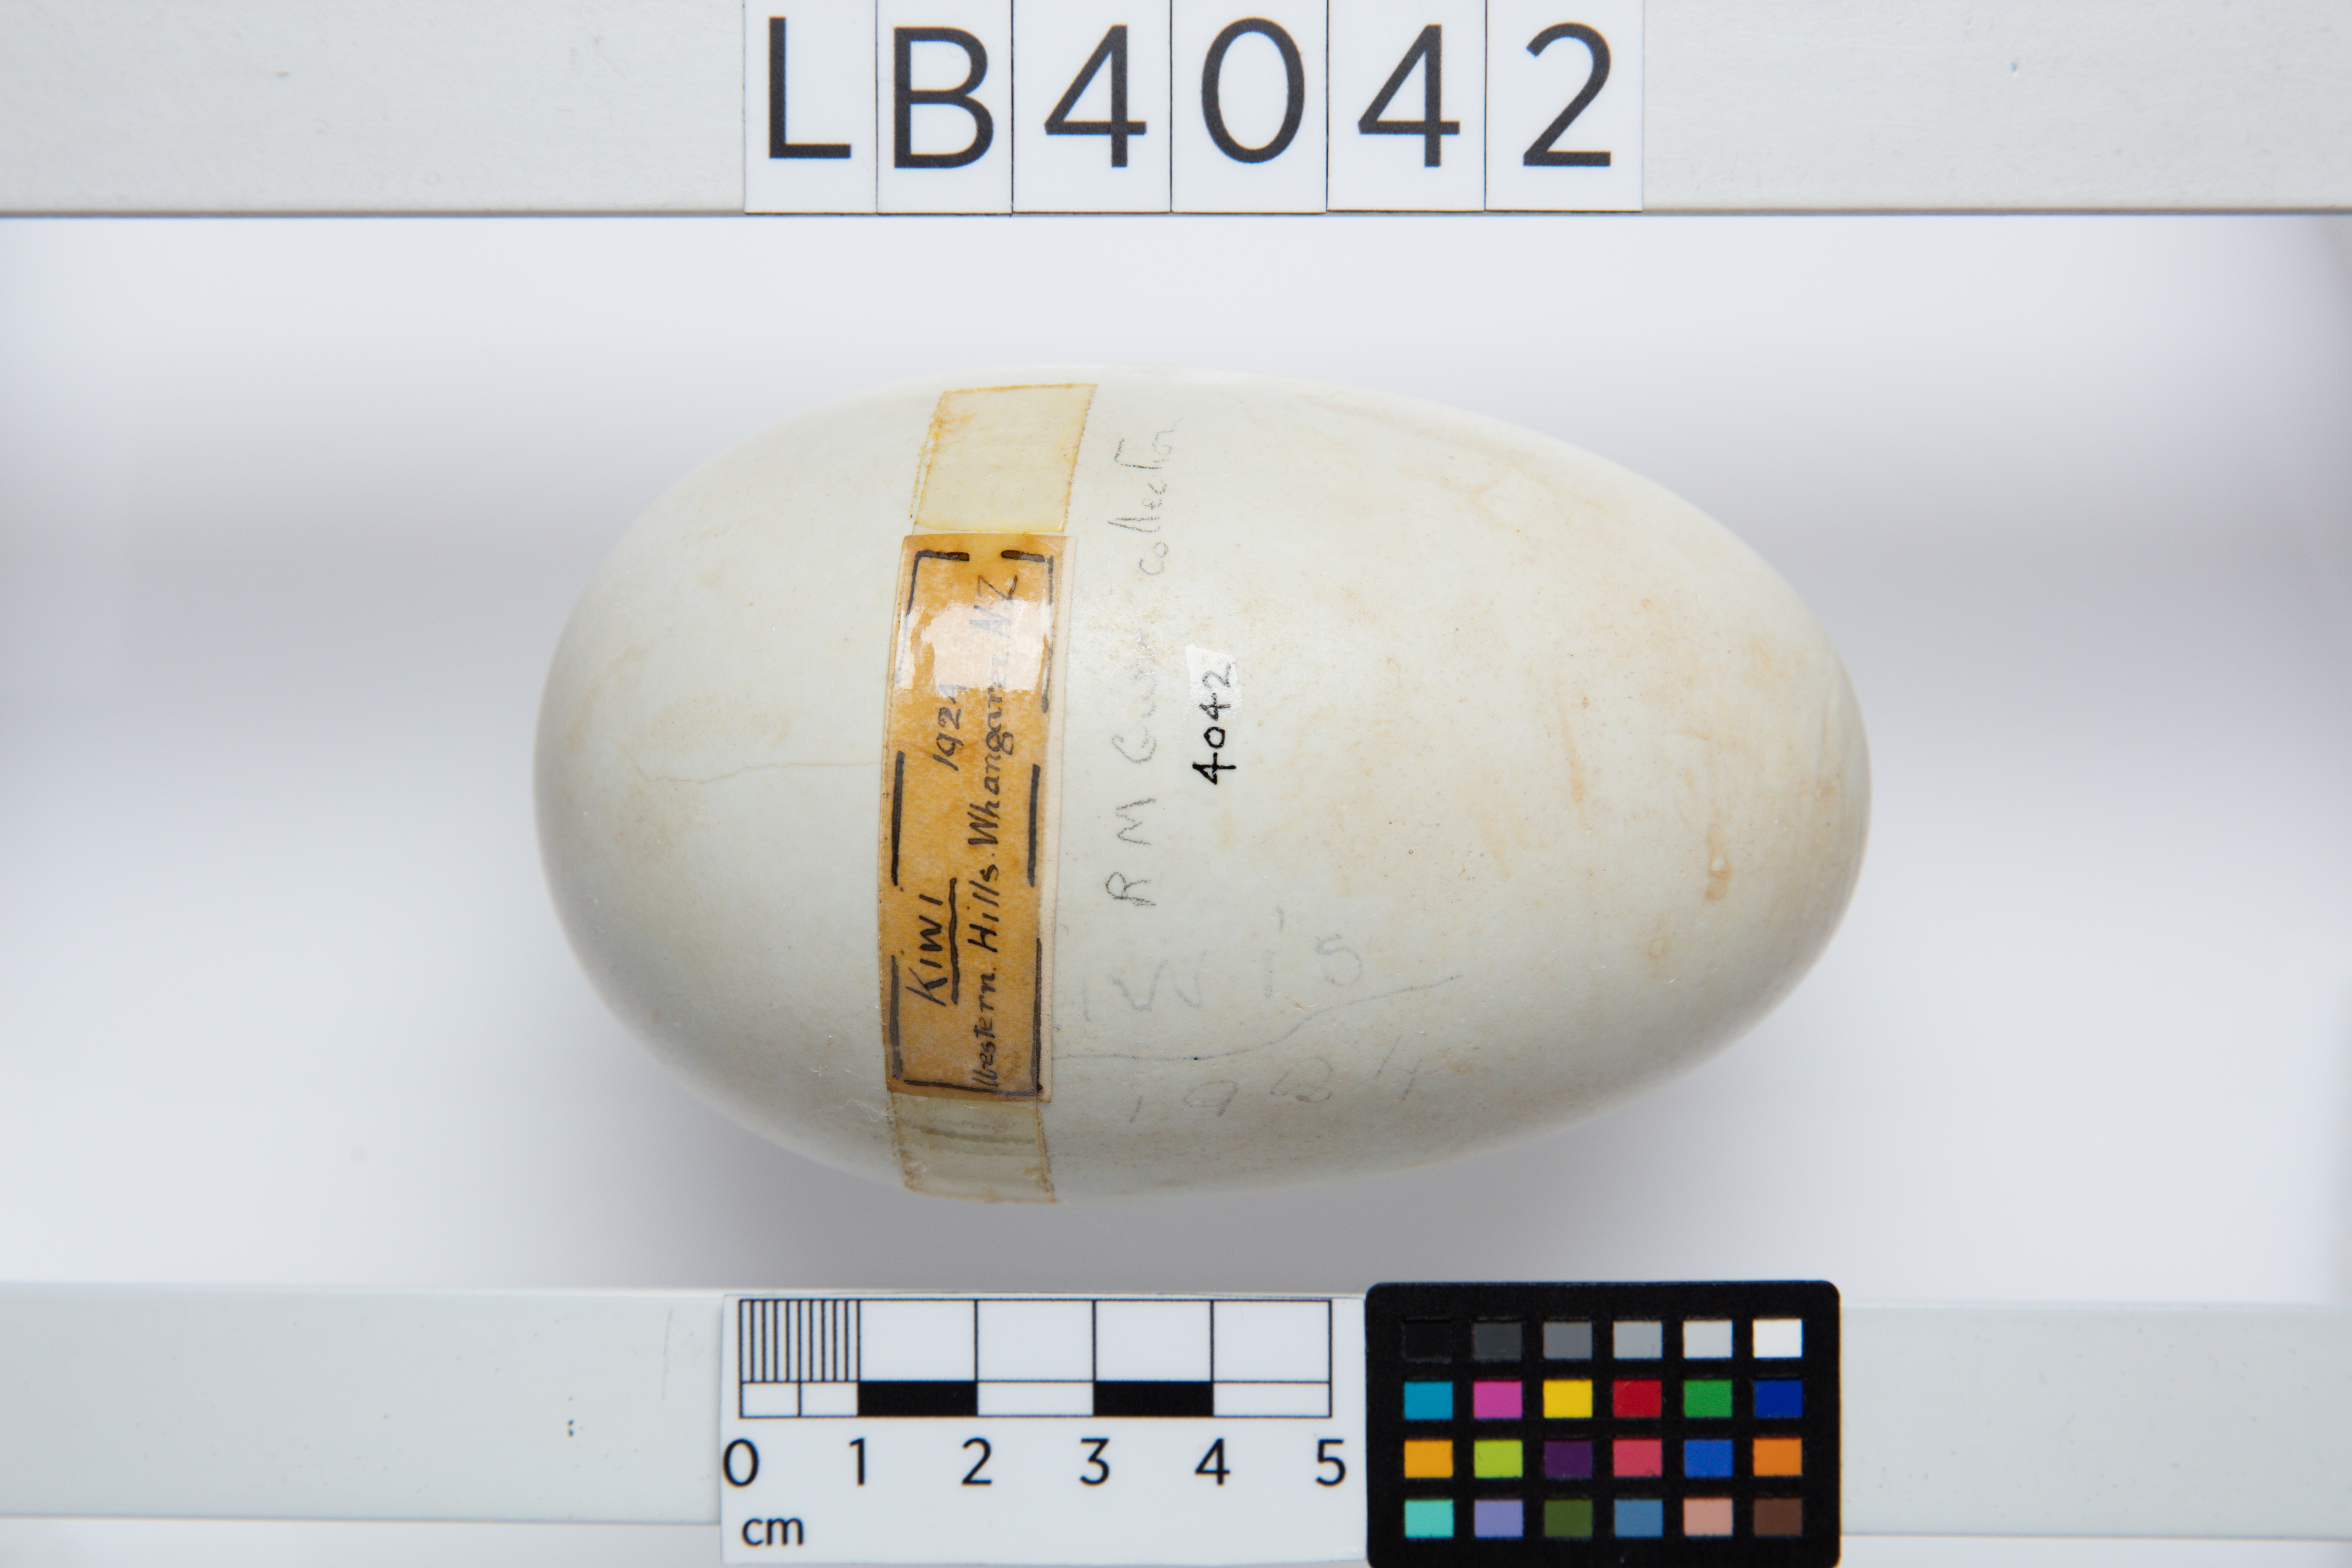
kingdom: Animalia
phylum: Chordata
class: Aves
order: Apterygiformes
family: Apterygidae
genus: Apteryx
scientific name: Apteryx mantelli
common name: North island brown kiwi
